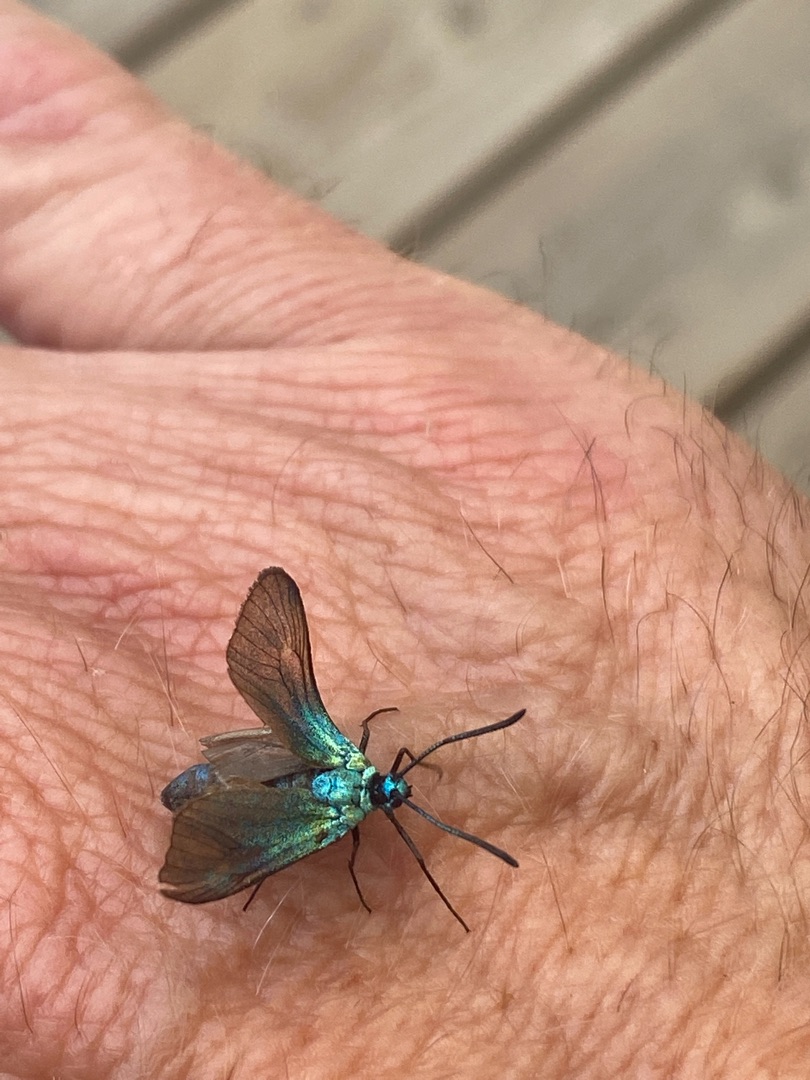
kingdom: Animalia
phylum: Arthropoda
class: Insecta
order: Lepidoptera
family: Zygaenidae
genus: Adscita
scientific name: Adscita statices
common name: Metalvinge
